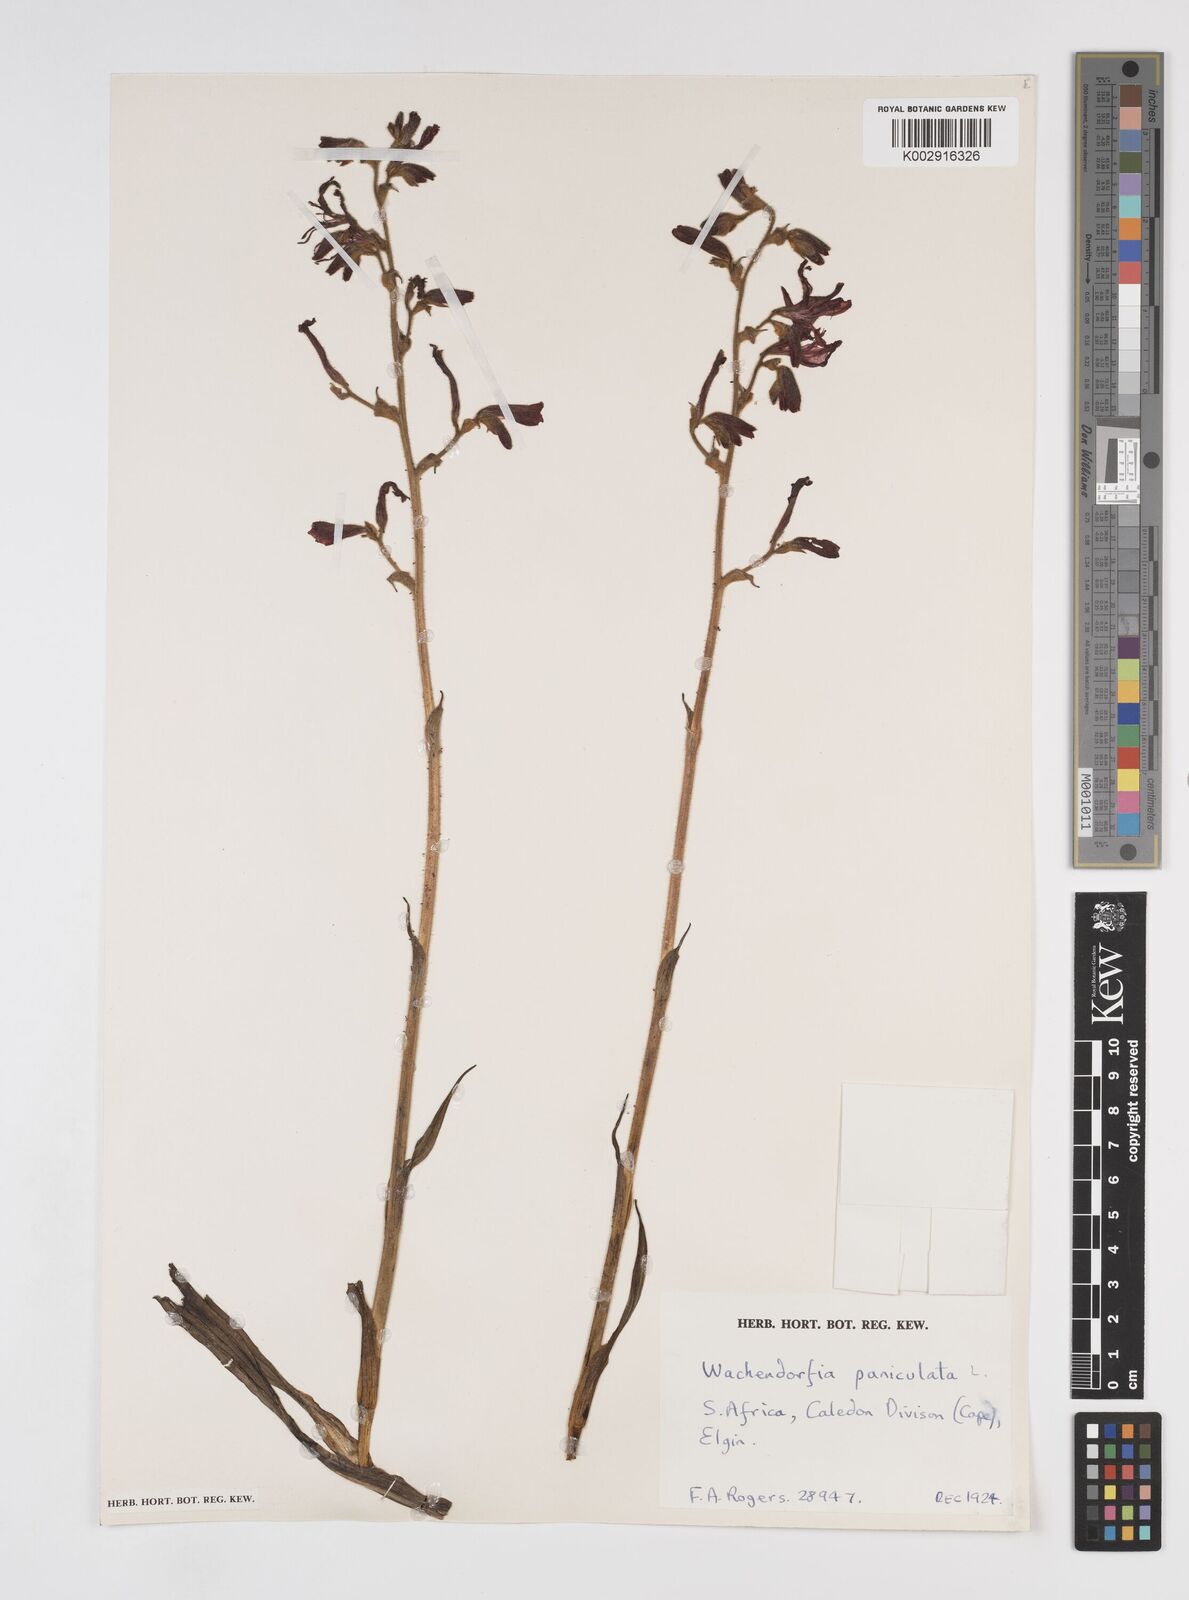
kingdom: Plantae
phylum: Tracheophyta
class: Liliopsida
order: Commelinales
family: Haemodoraceae
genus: Wachendorfia
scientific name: Wachendorfia paniculata
